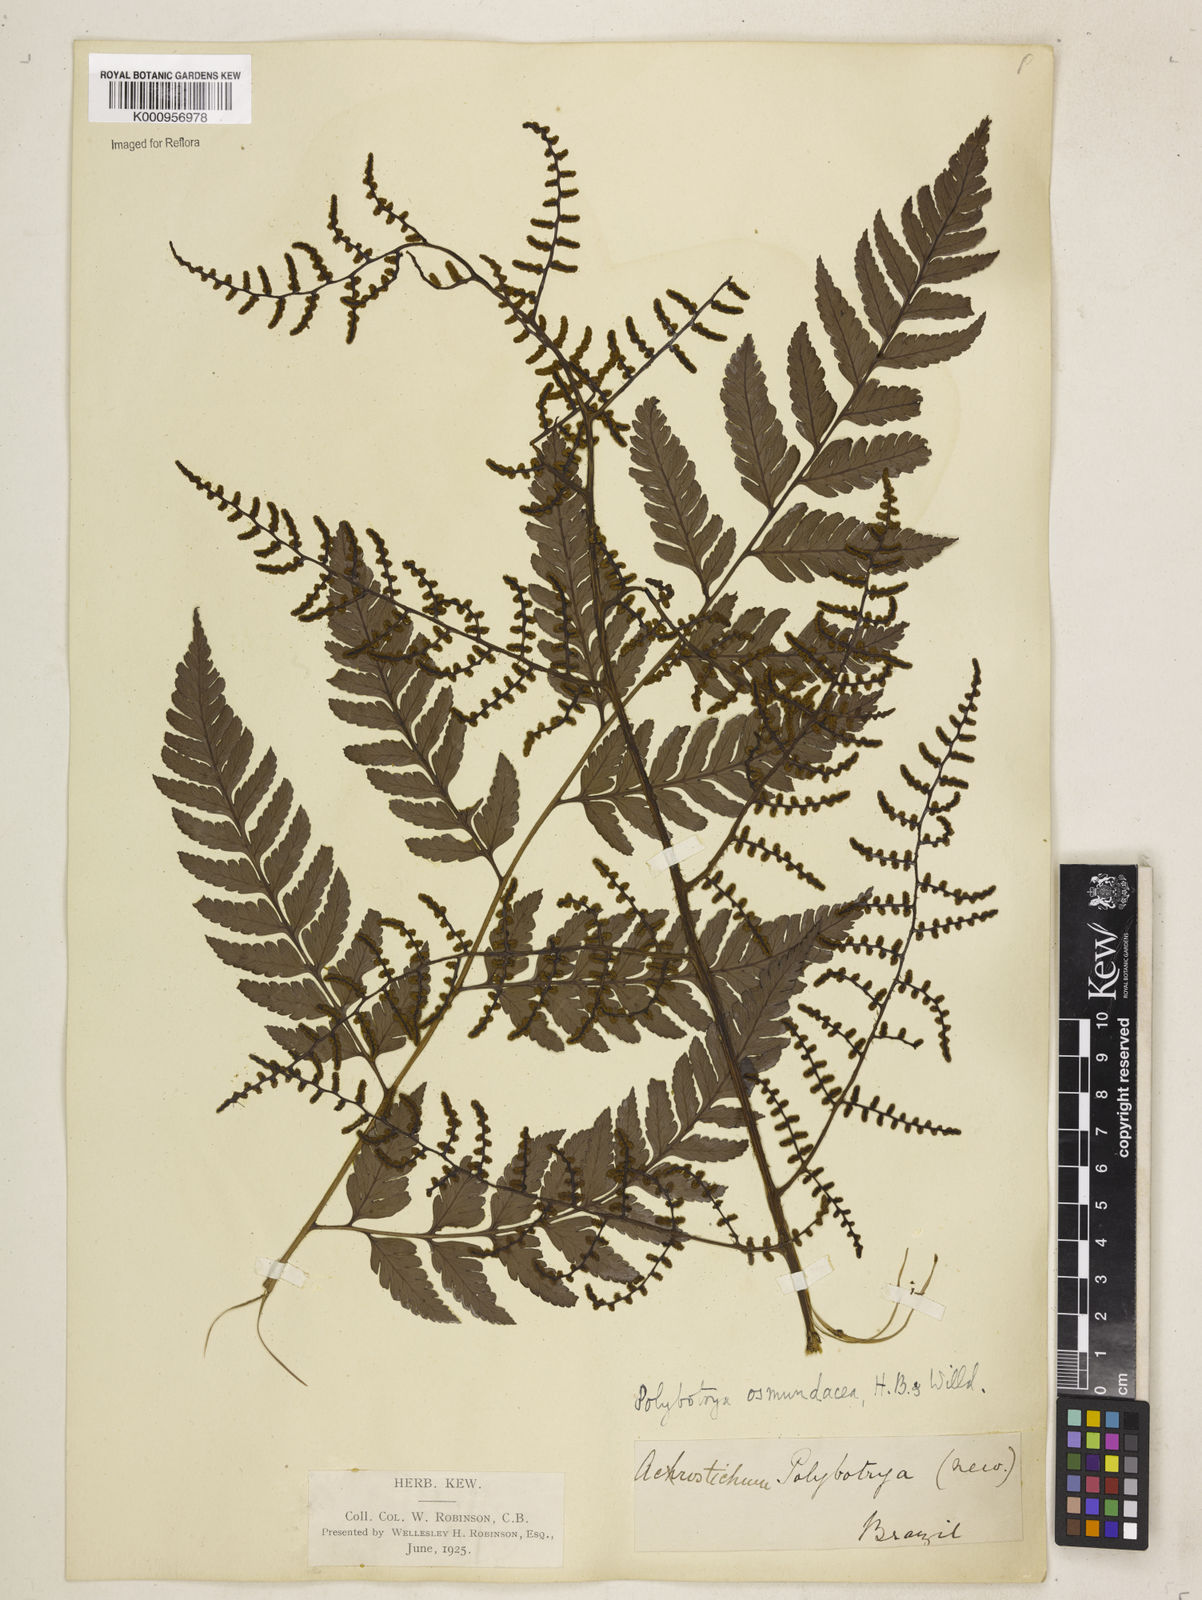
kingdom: Plantae
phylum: Tracheophyta
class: Polypodiopsida
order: Polypodiales
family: Dryopteridaceae
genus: Polybotrya
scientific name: Polybotrya osmundacea
